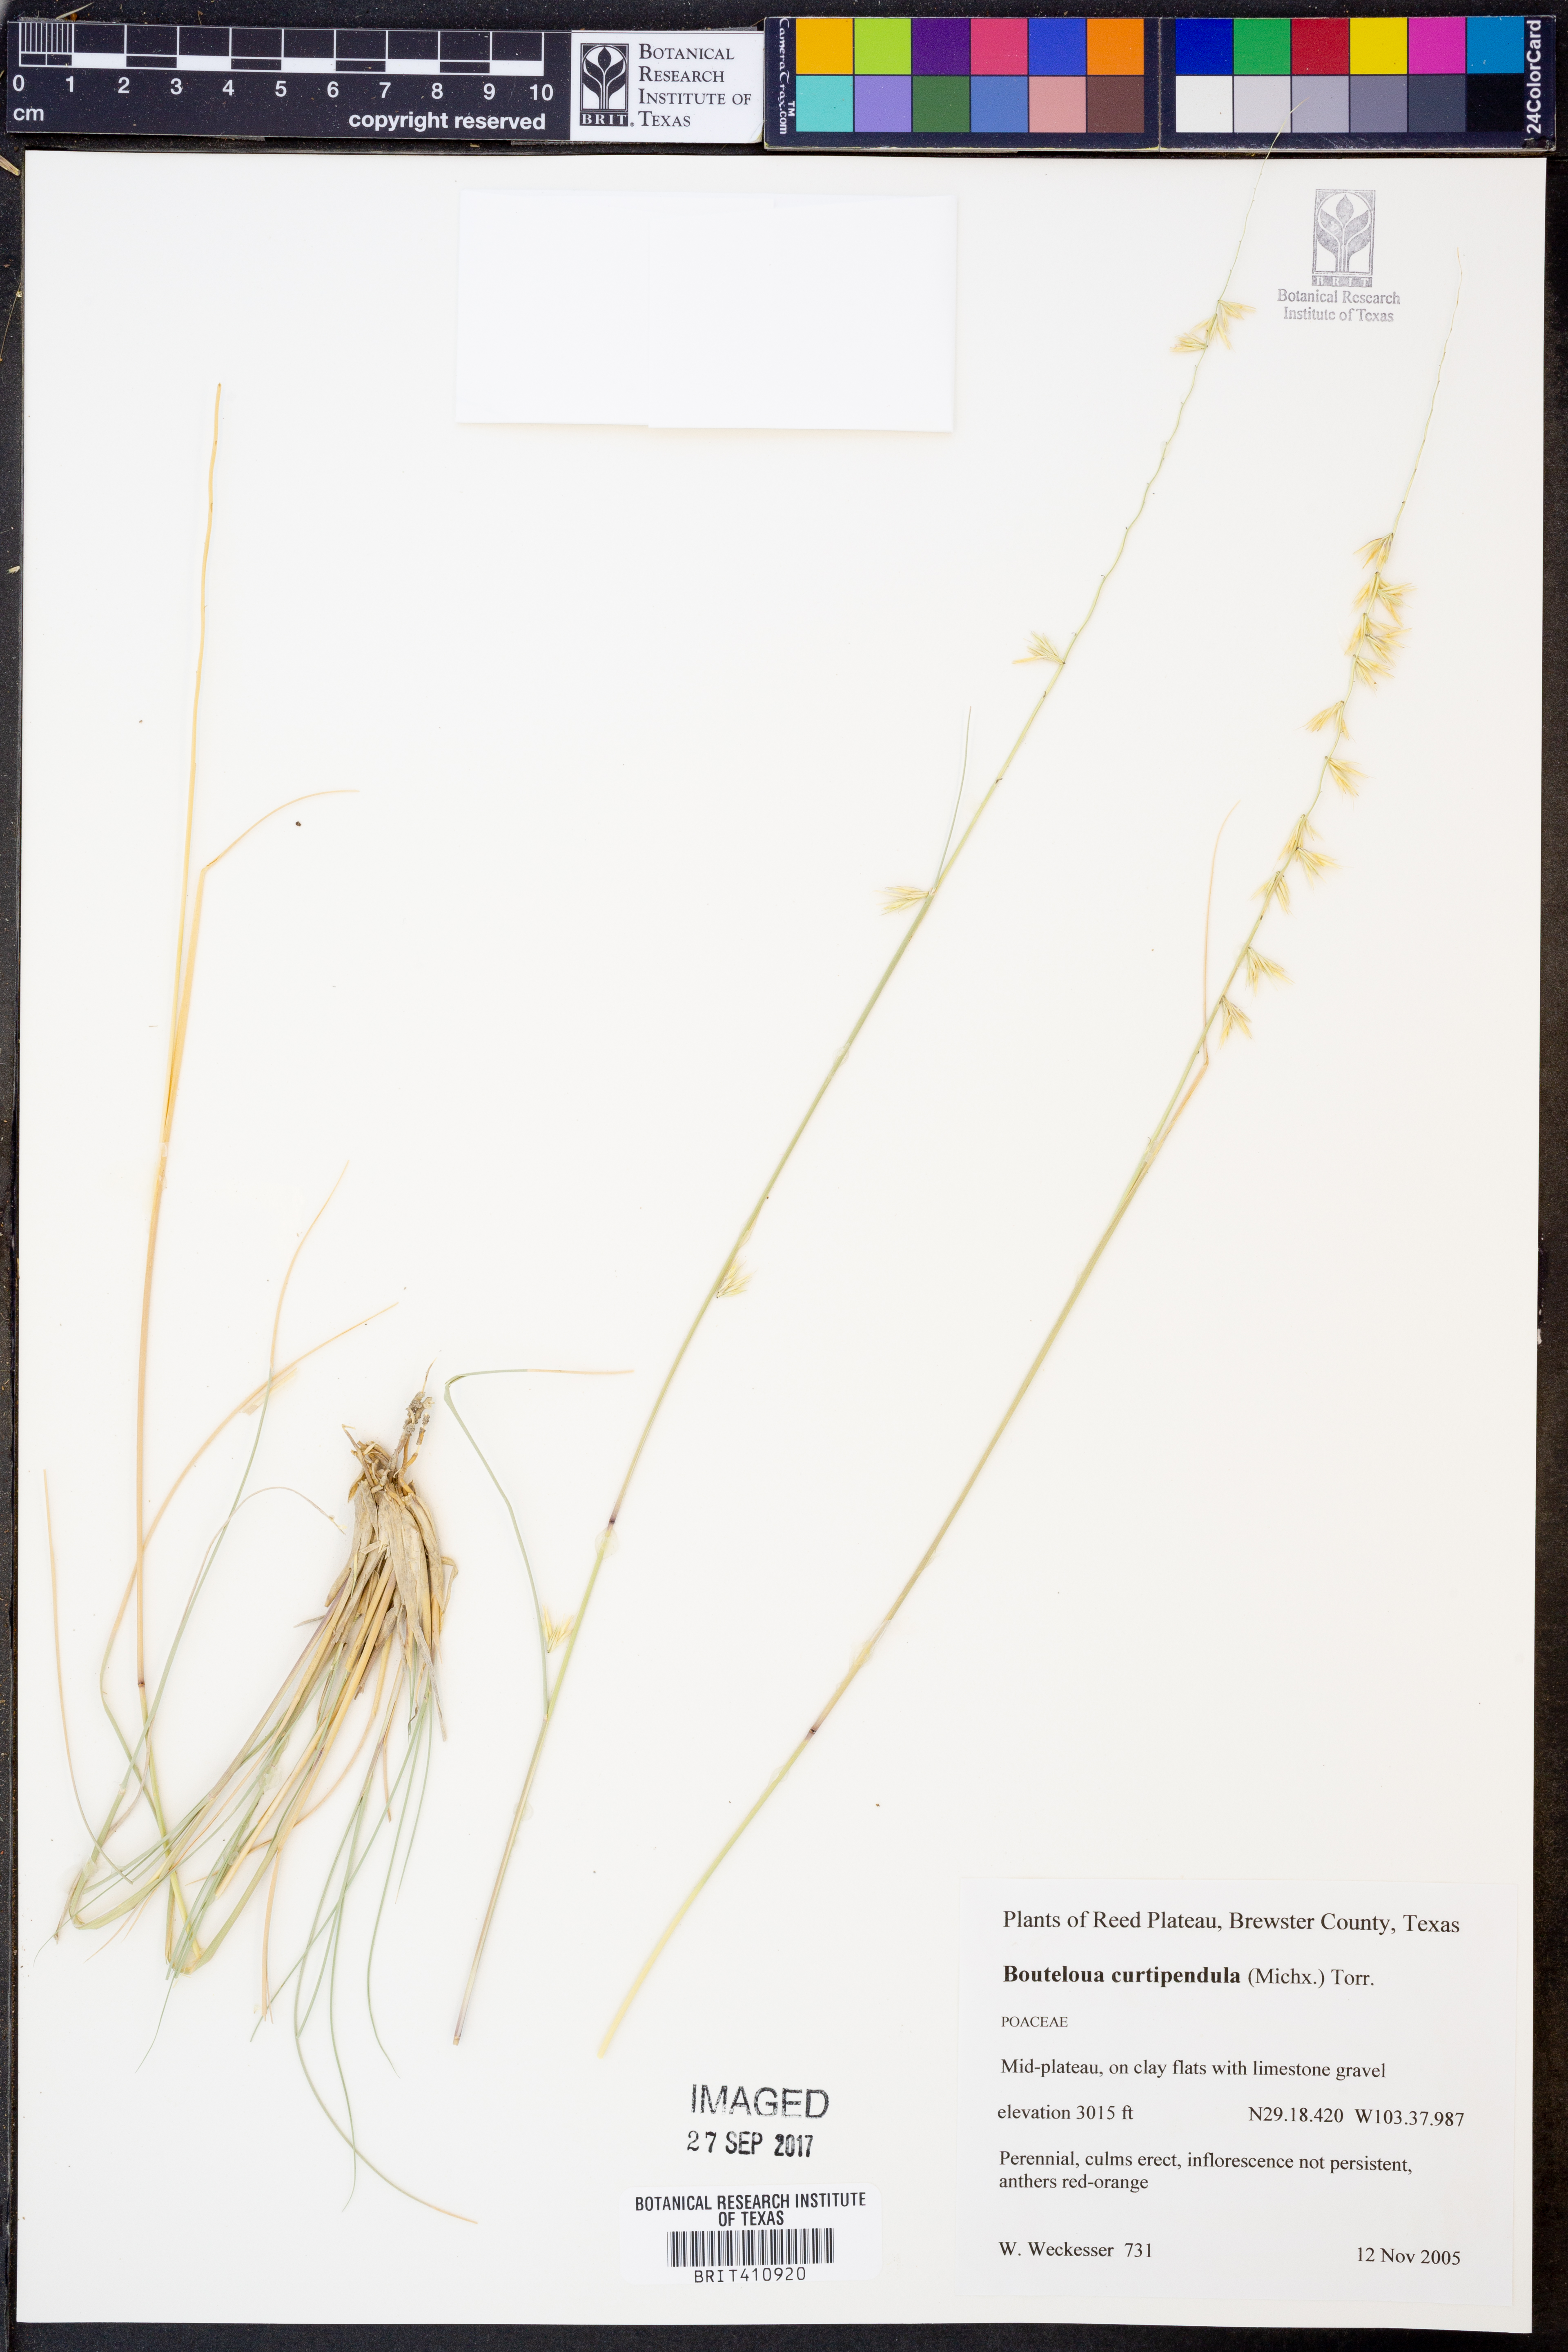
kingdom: Plantae
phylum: Tracheophyta
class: Liliopsida
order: Poales
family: Poaceae
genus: Bouteloua
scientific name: Bouteloua curtipendula
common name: Side-oats grama
